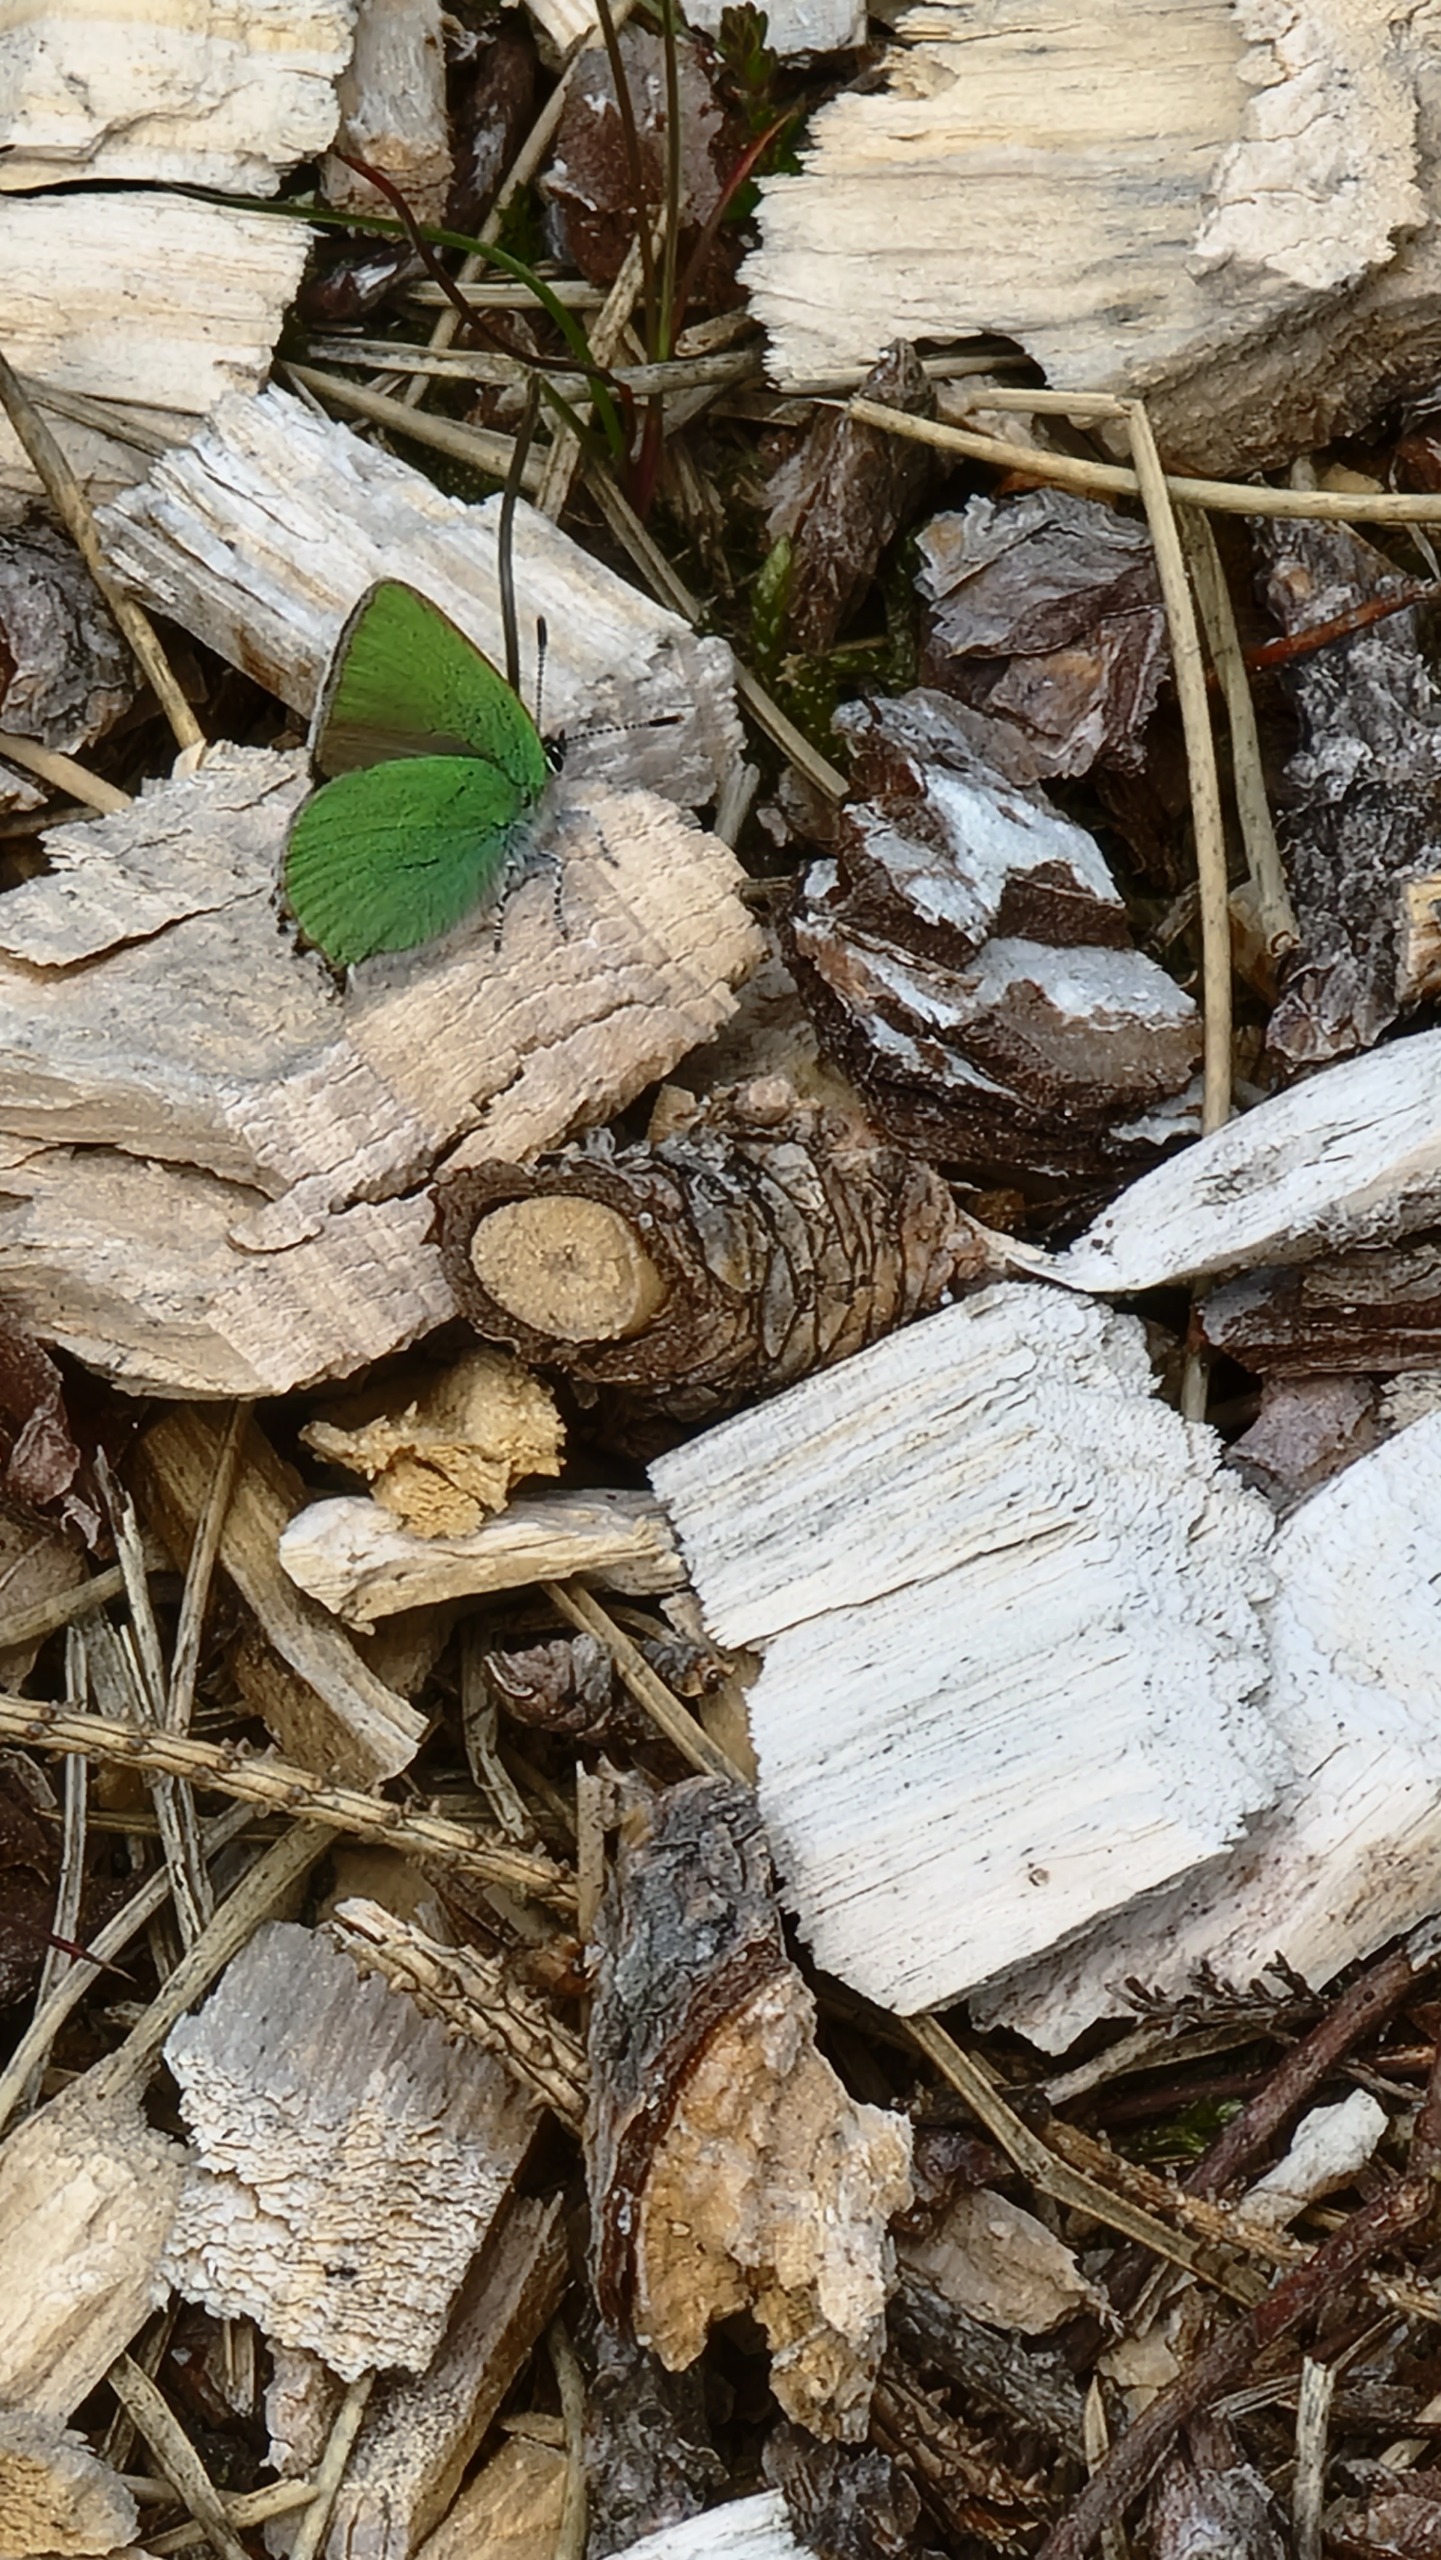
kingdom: Animalia
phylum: Arthropoda
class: Insecta
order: Lepidoptera
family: Lycaenidae
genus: Callophrys
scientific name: Callophrys rubi
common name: Grøn busksommerfugl
